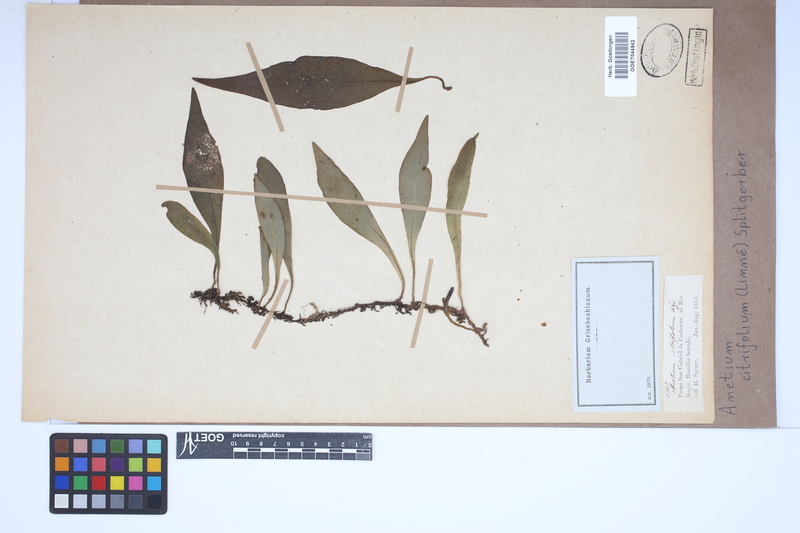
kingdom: Plantae
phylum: Tracheophyta
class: Polypodiopsida
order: Polypodiales
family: Pteridaceae
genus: Polytaenium
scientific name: Polytaenium citrifolium
